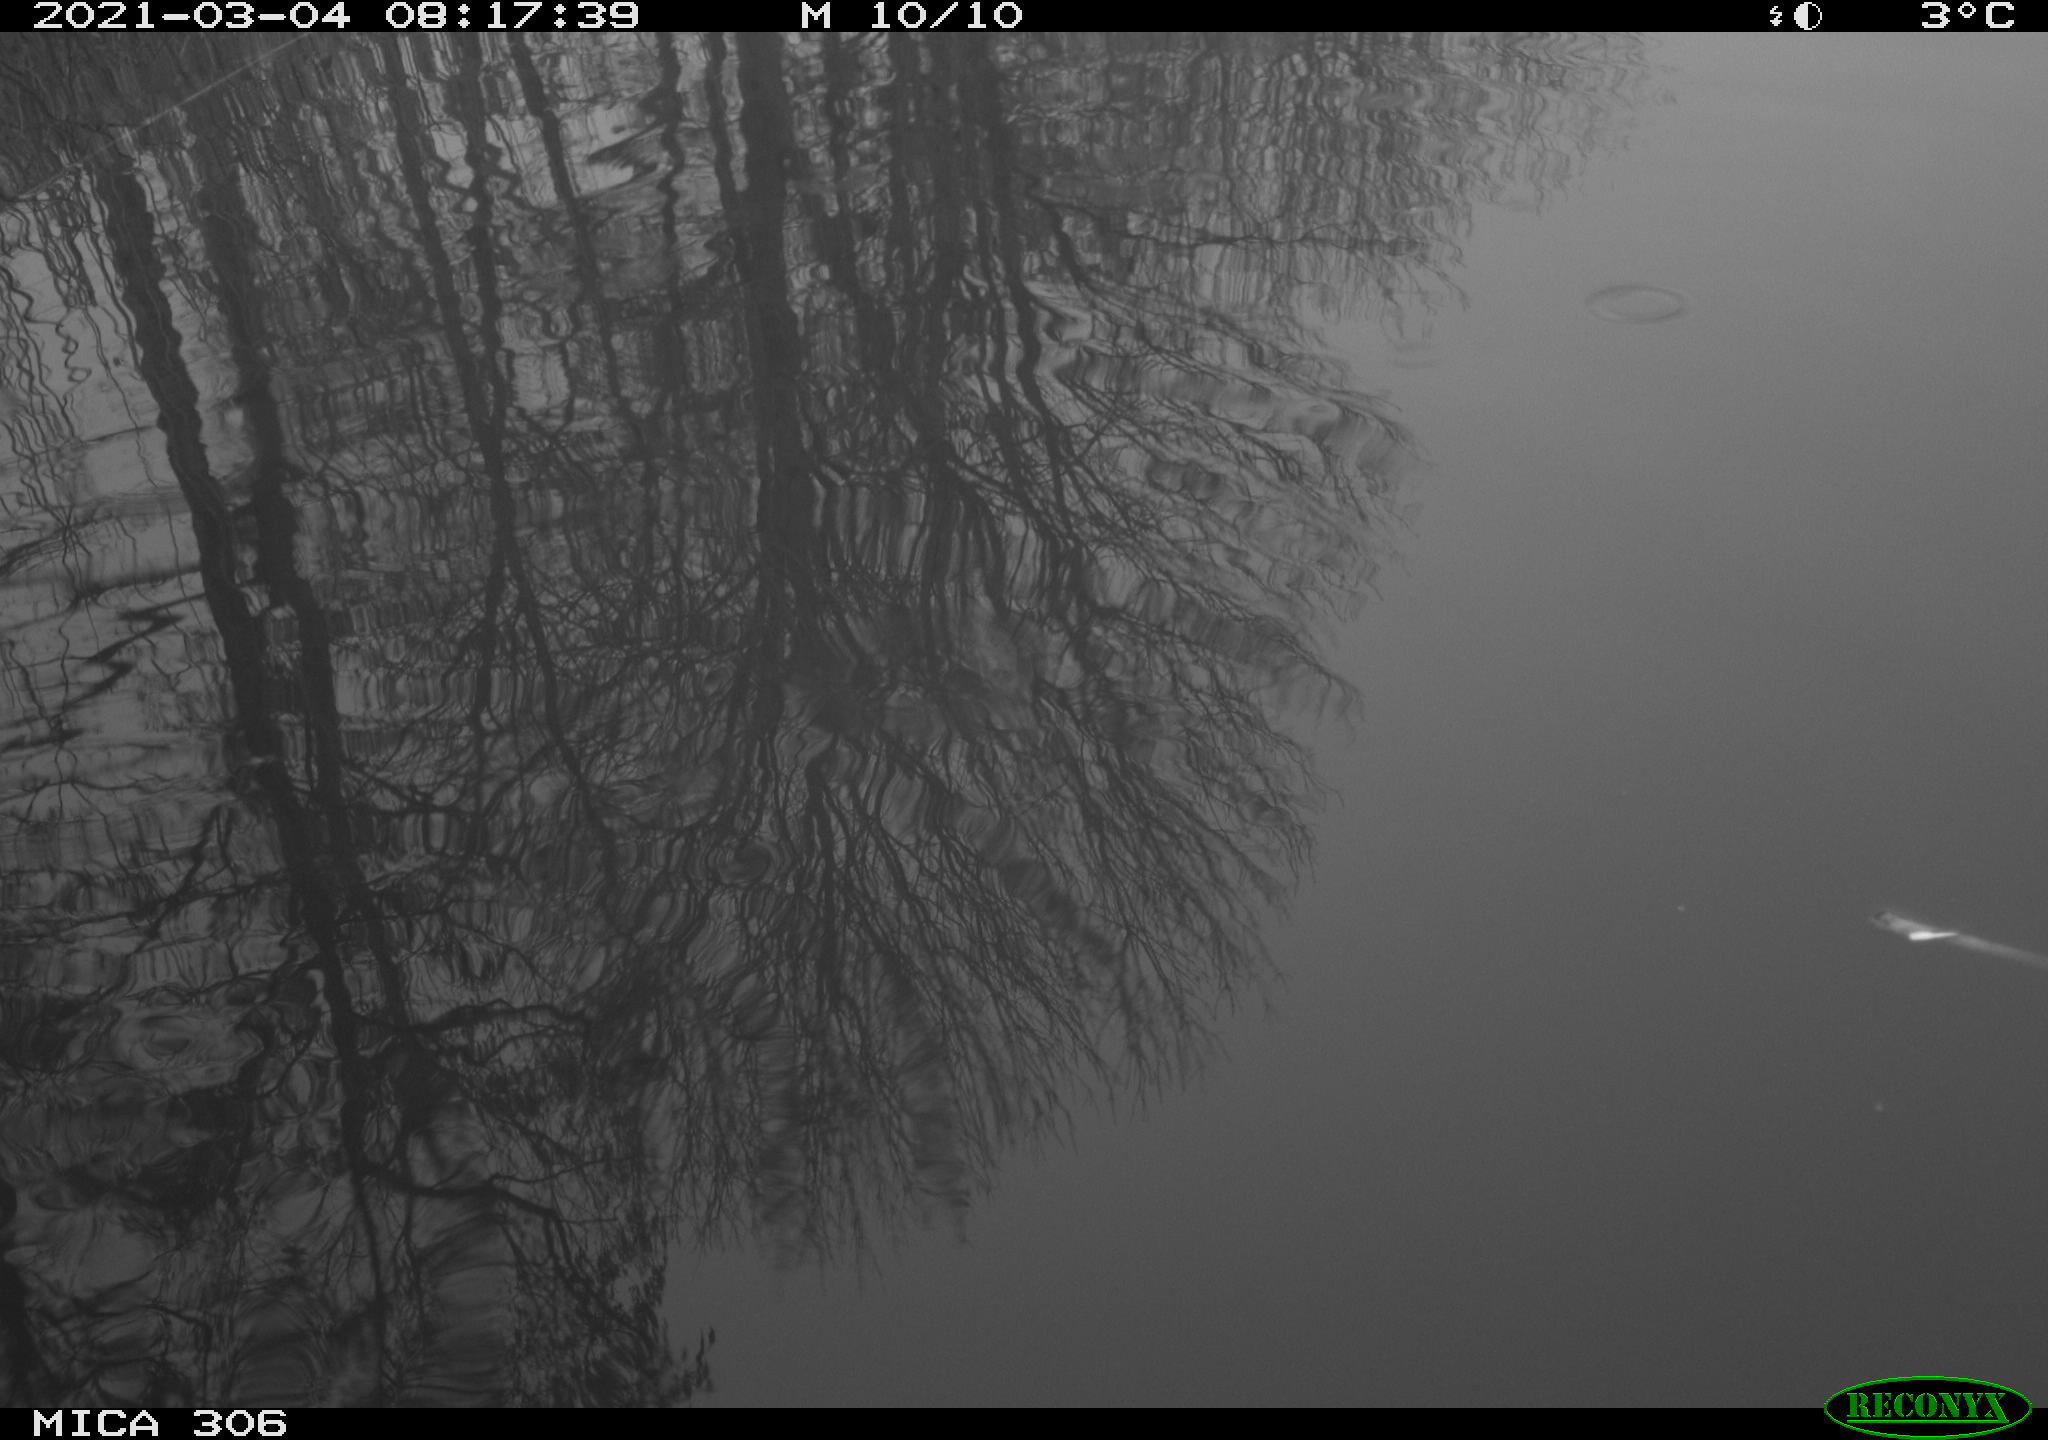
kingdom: Animalia
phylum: Chordata
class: Aves
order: Gruiformes
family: Rallidae
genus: Gallinula
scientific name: Gallinula chloropus
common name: Common moorhen
